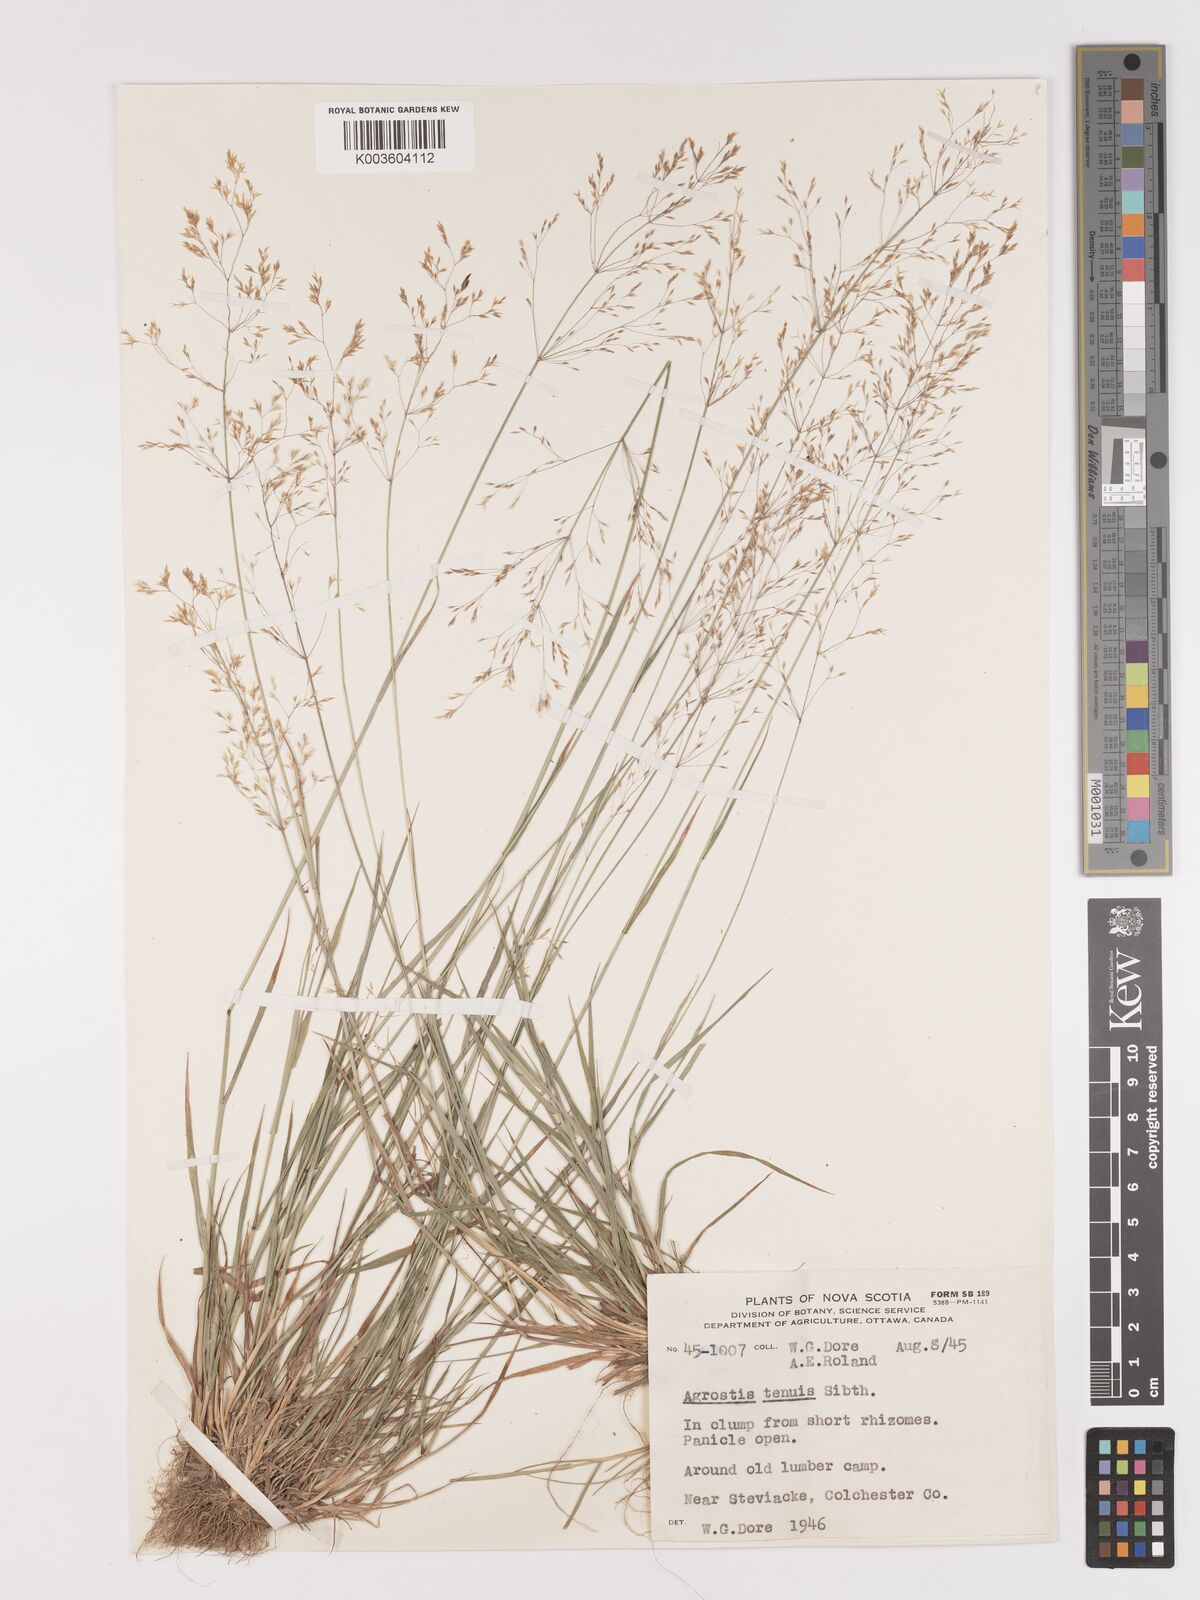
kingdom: Plantae
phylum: Tracheophyta
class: Liliopsida
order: Poales
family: Poaceae
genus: Agrostis
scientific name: Agrostis capillaris
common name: Colonial bentgrass
